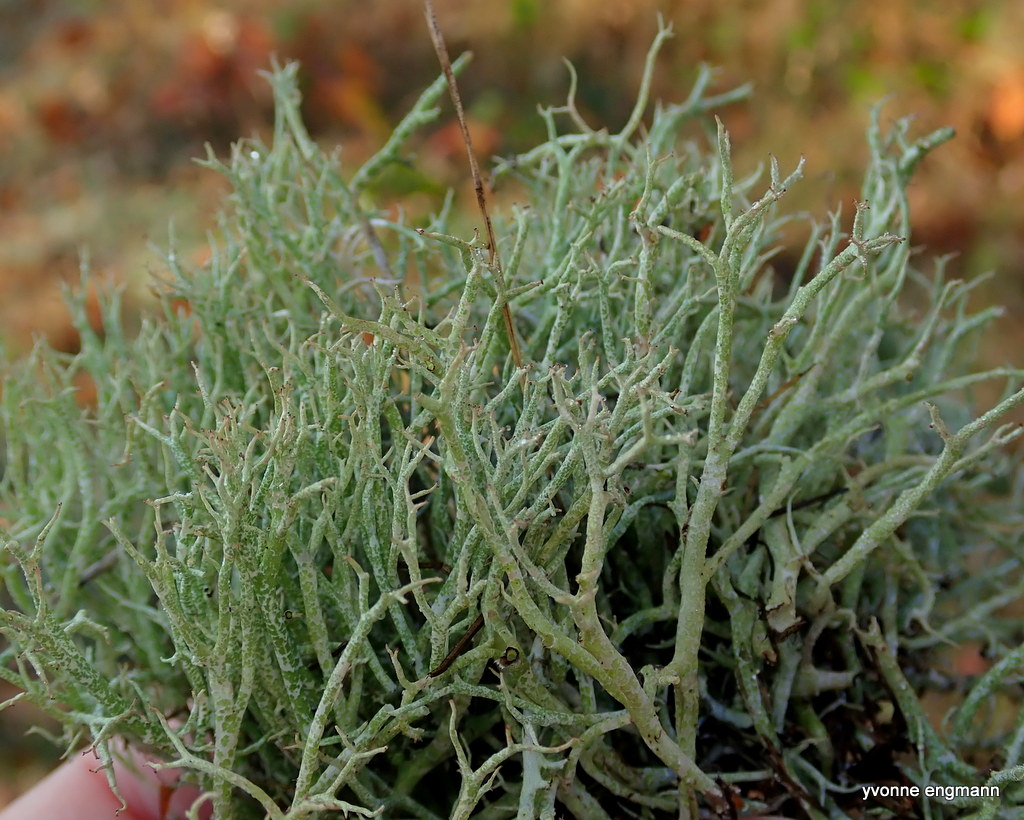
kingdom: Fungi
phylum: Ascomycota
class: Lecanoromycetes
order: Lecanorales
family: Cladoniaceae
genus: Cladonia
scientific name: Cladonia rangiformis
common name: spættet bægerlav
